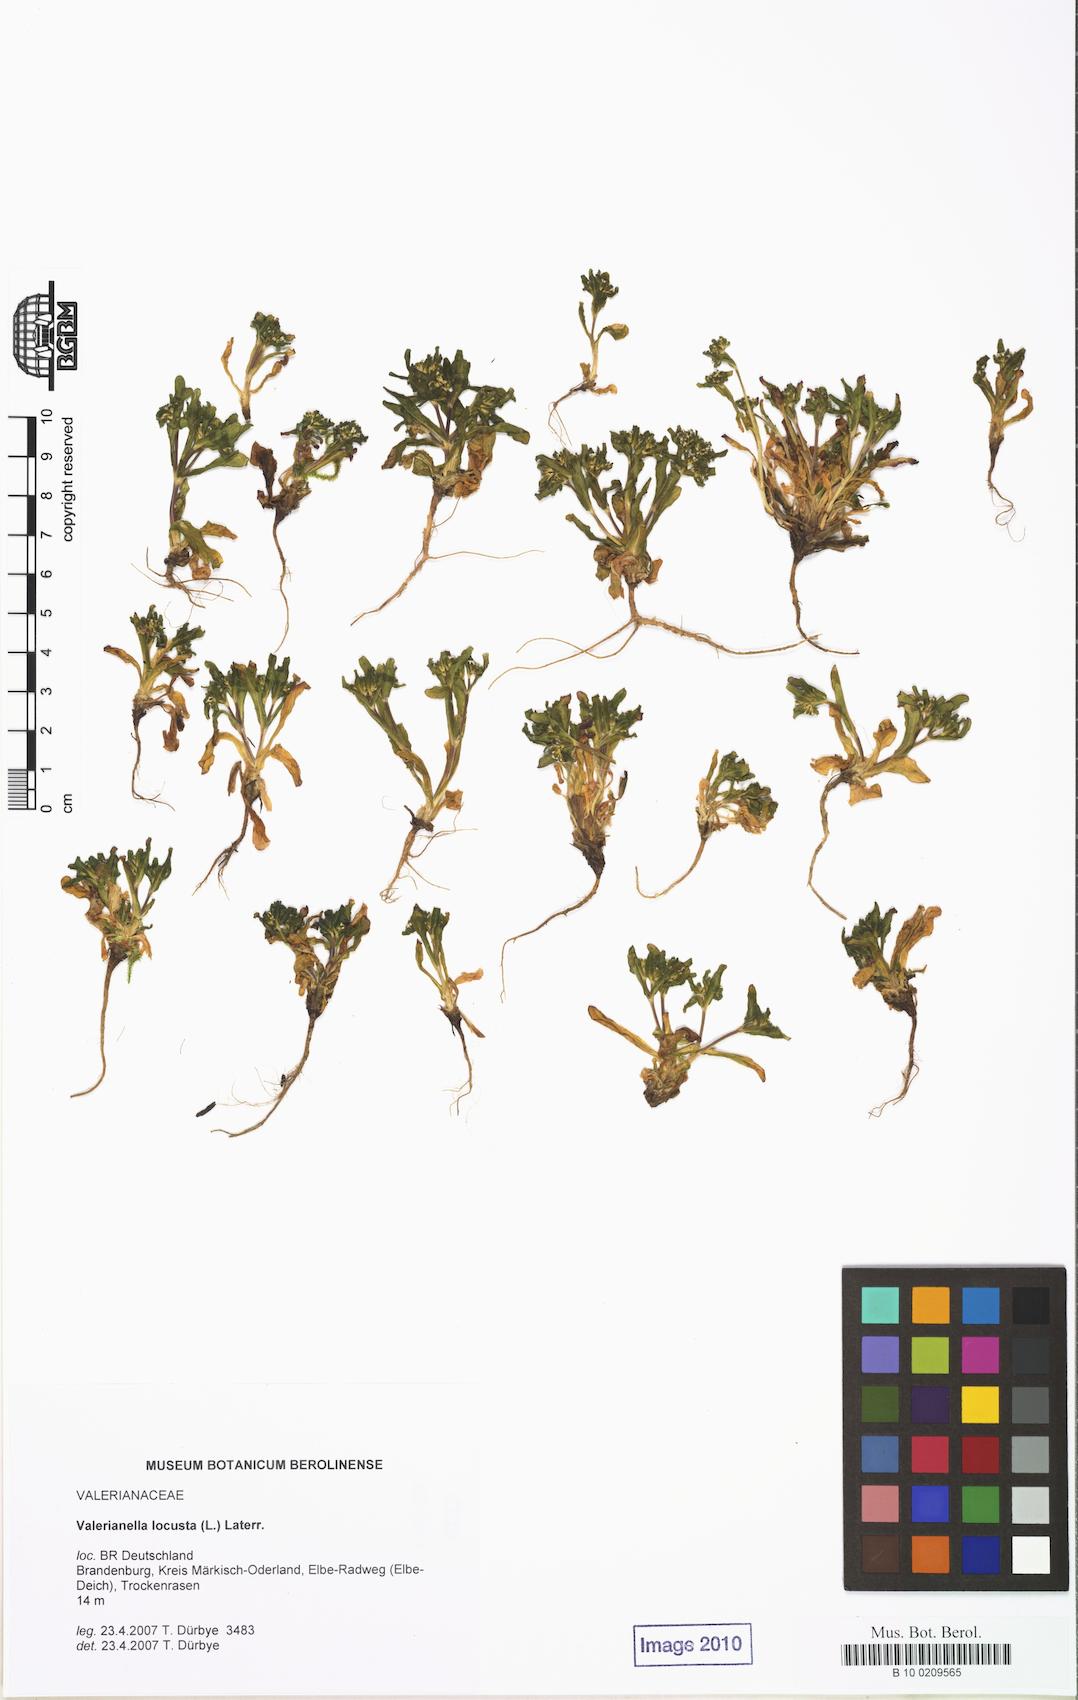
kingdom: Plantae
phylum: Tracheophyta
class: Magnoliopsida
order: Dipsacales
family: Caprifoliaceae
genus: Valerianella
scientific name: Valerianella locusta
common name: Common cornsalad
